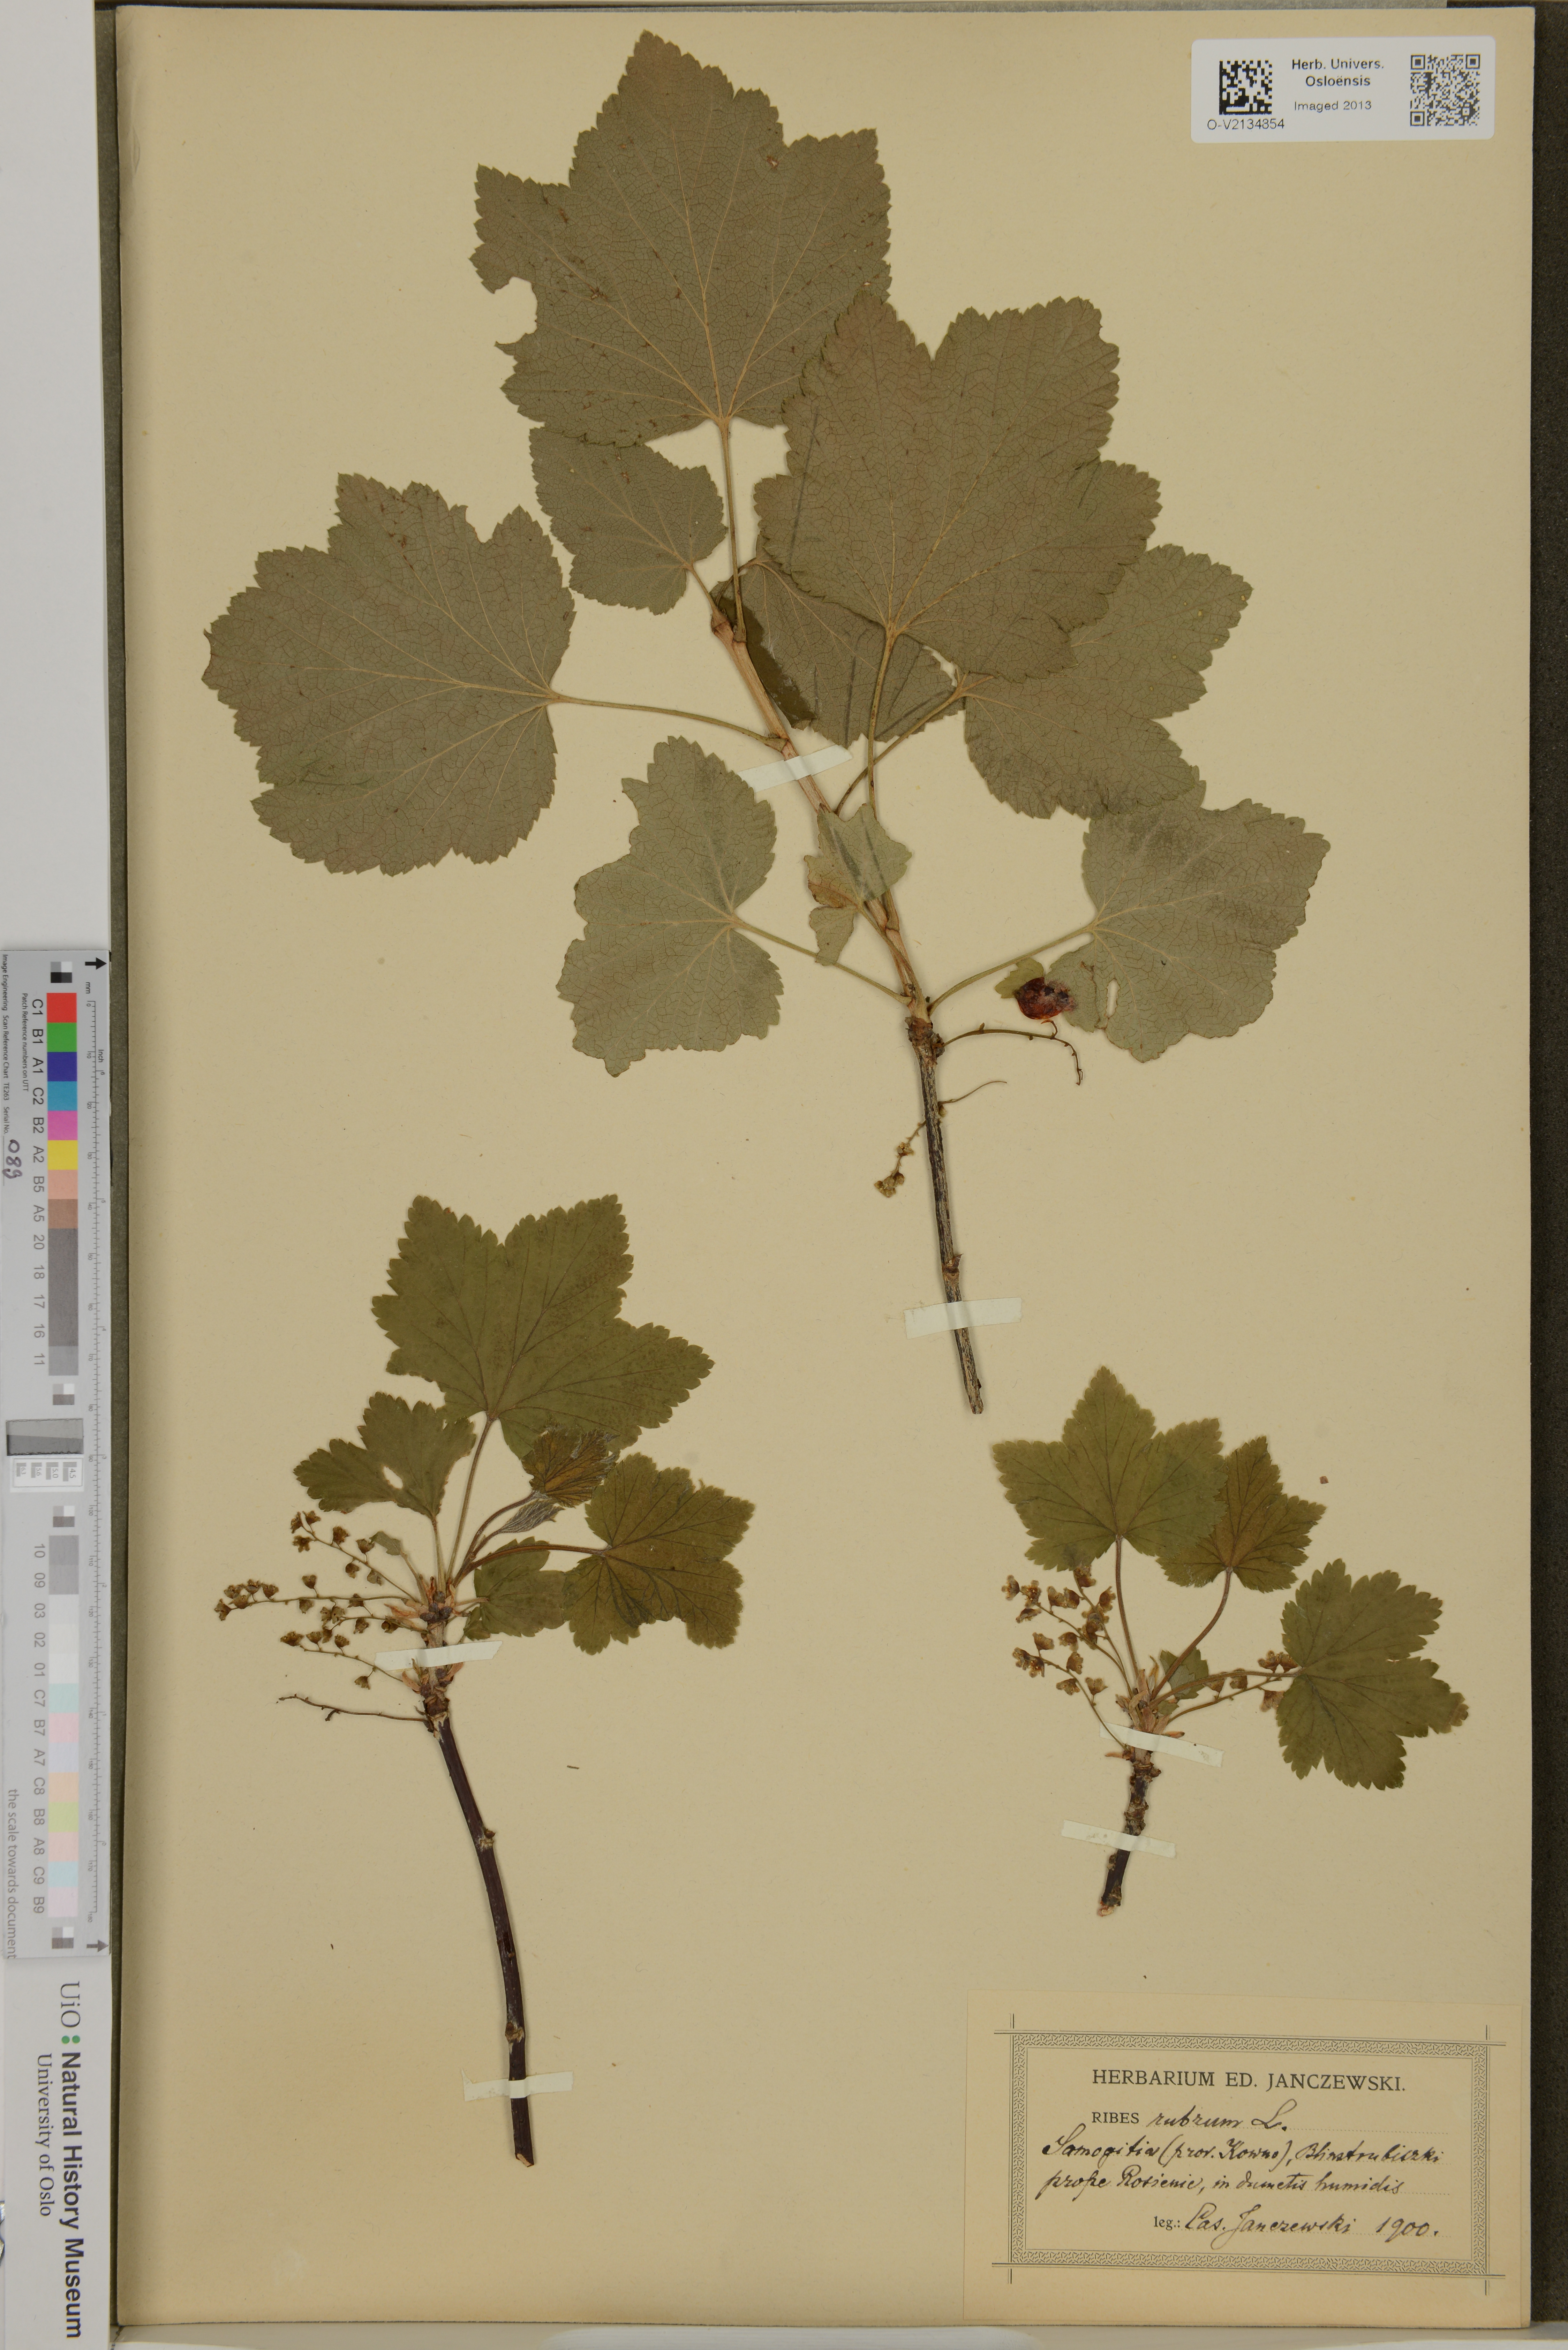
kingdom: Plantae
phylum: Tracheophyta
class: Magnoliopsida
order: Saxifragales
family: Grossulariaceae
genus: Ribes
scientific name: Ribes rubrum
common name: Red currant
